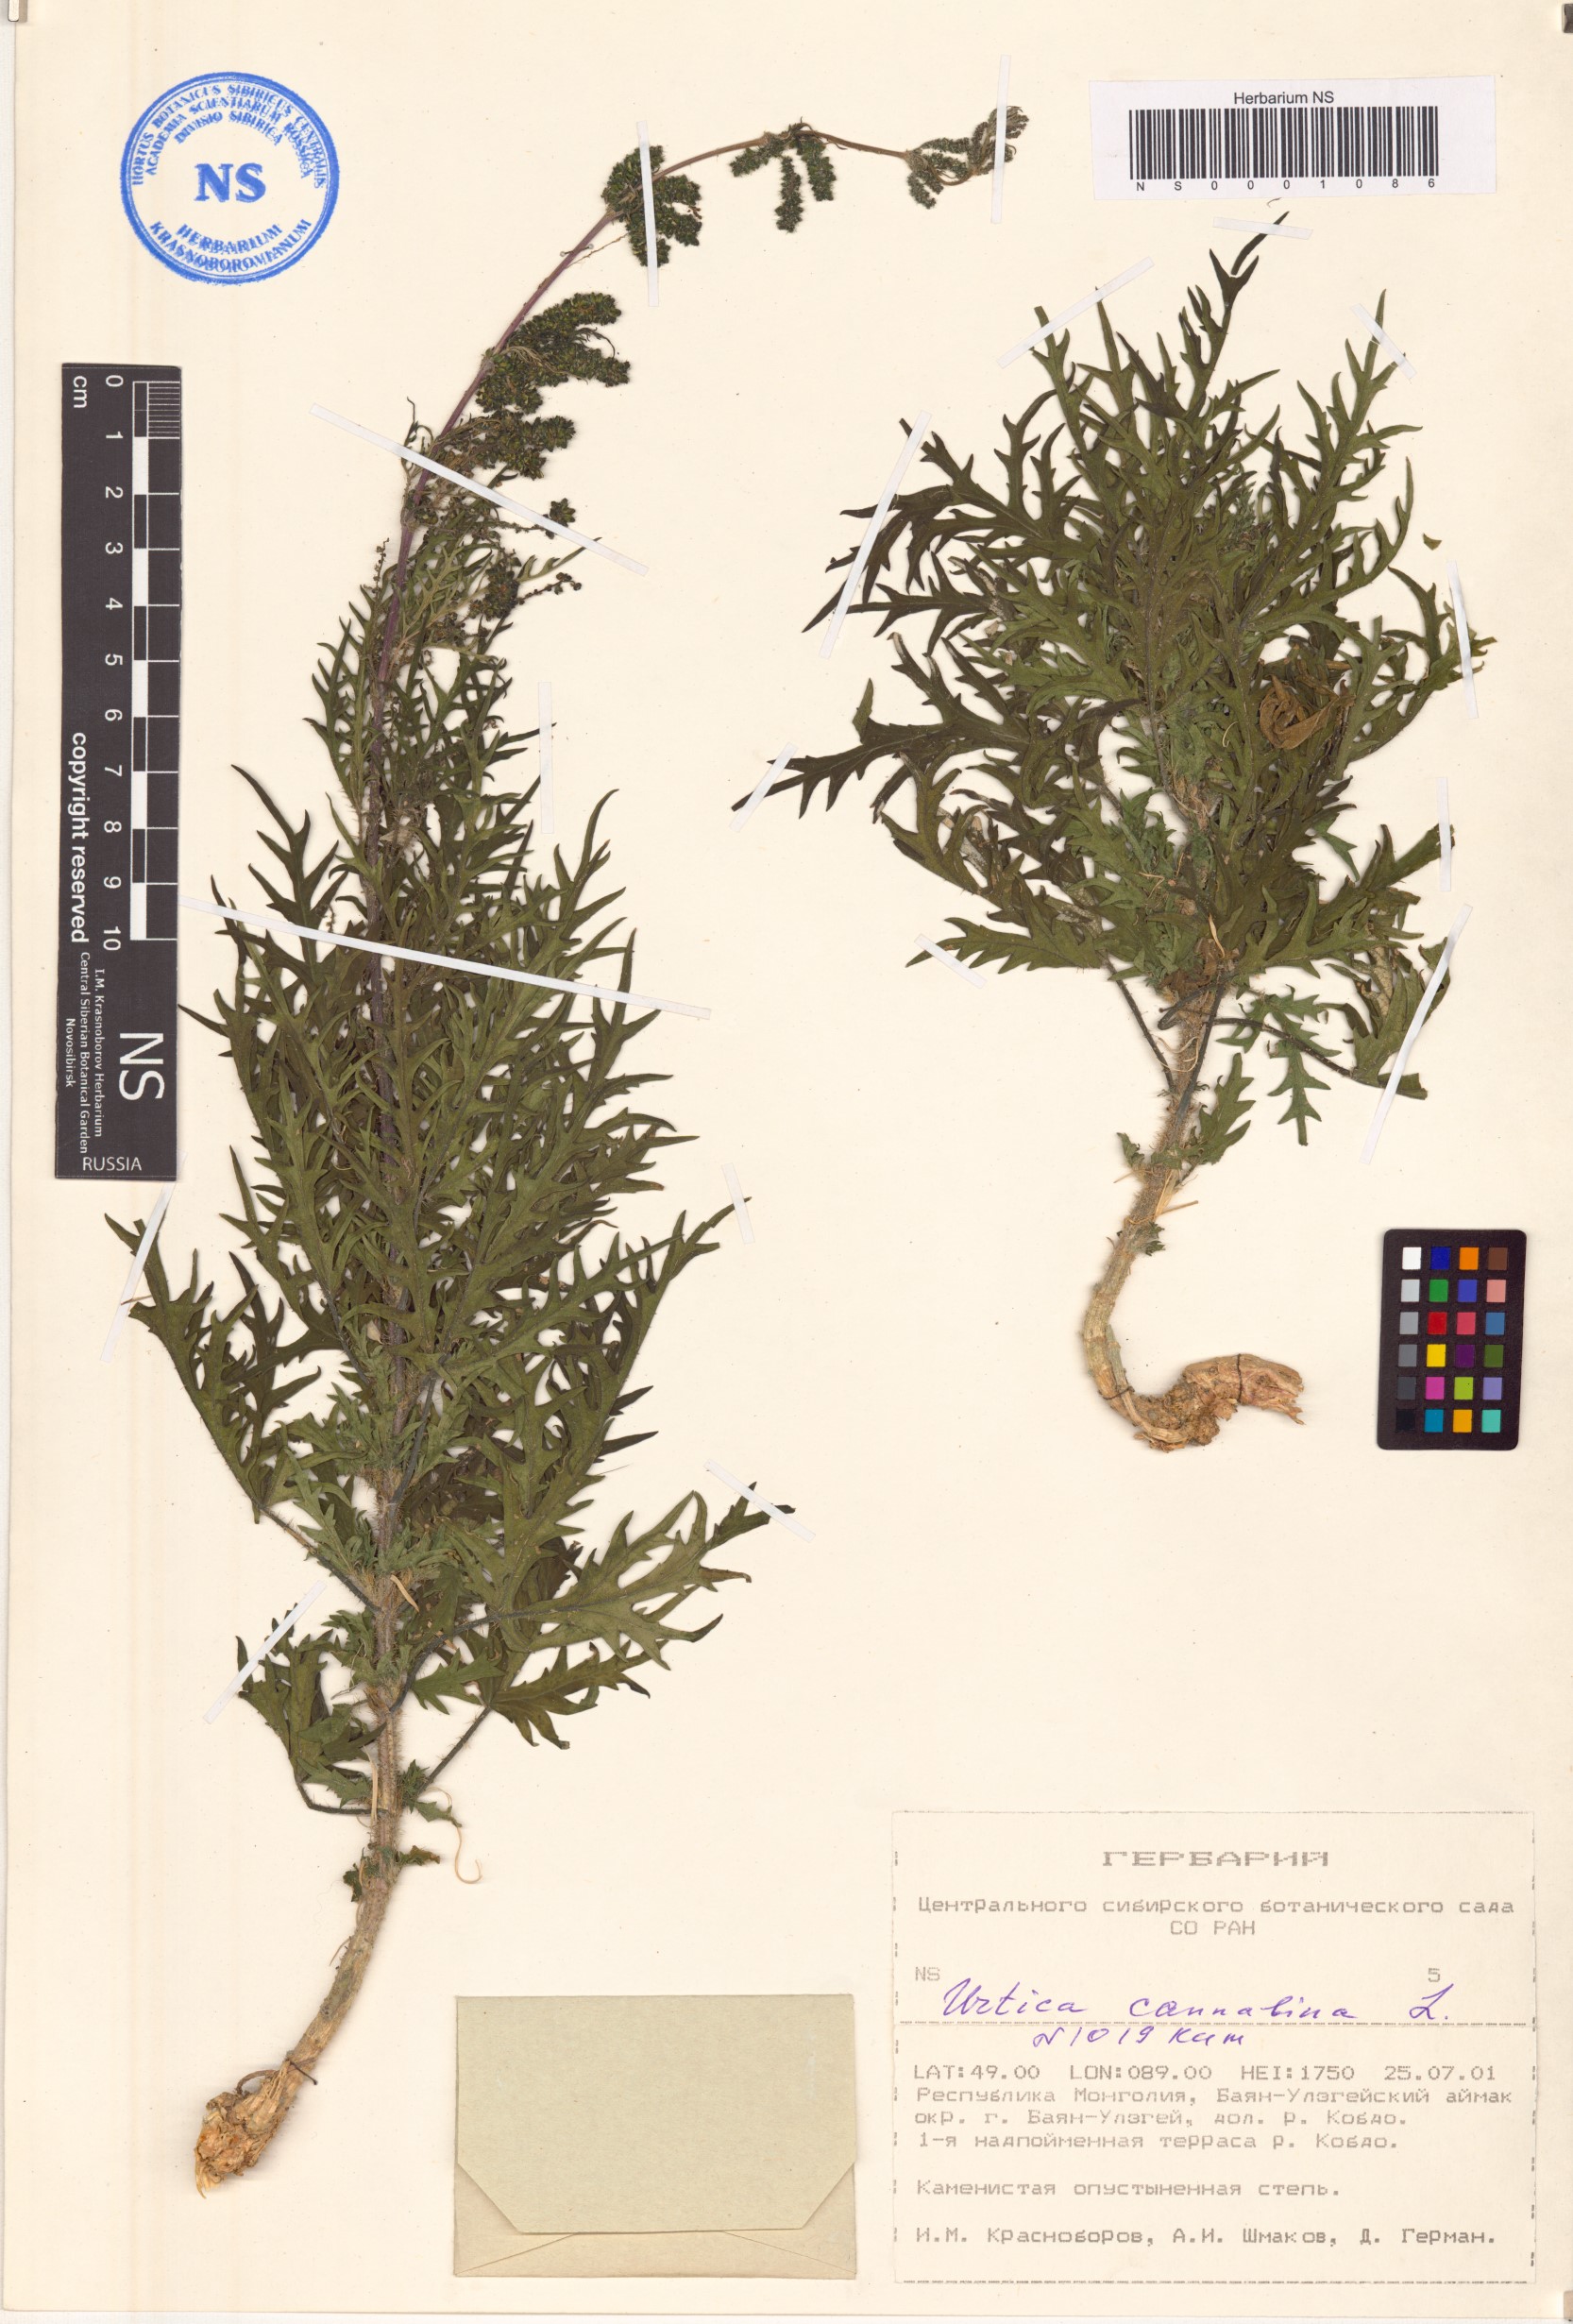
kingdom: Plantae
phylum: Tracheophyta
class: Magnoliopsida
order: Rosales
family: Urticaceae
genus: Urtica
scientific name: Urtica cannabina
